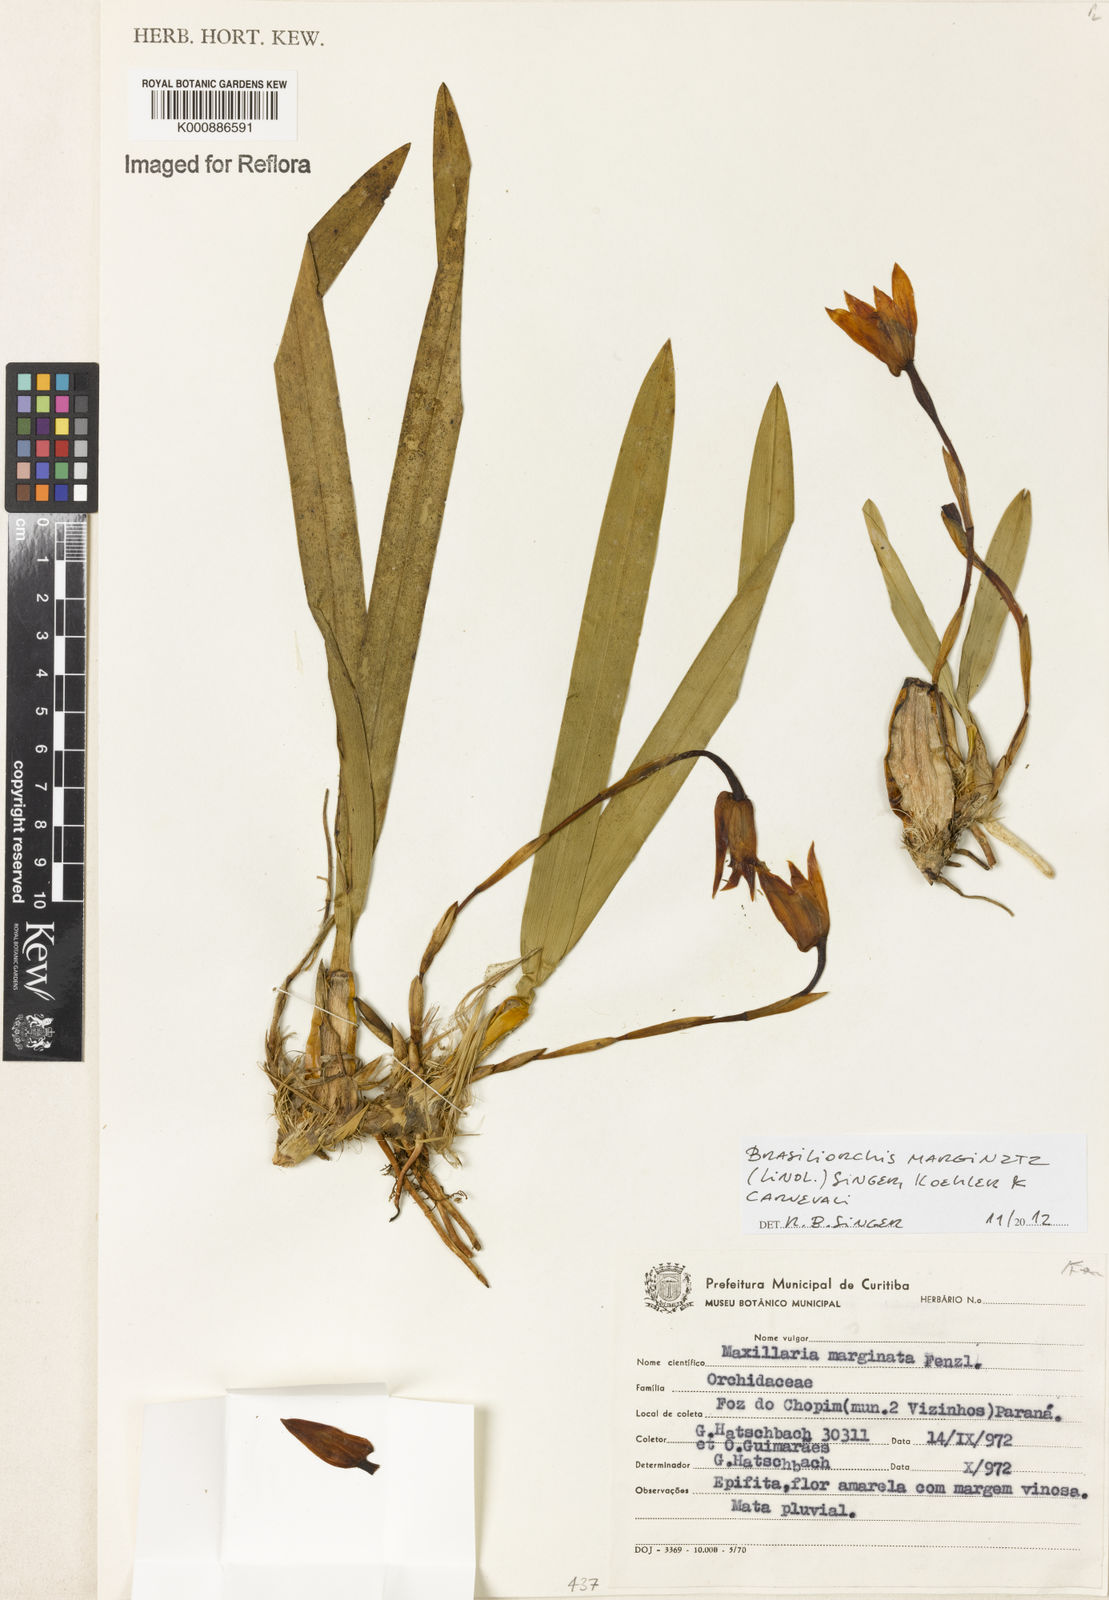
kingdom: Plantae
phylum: Tracheophyta
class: Liliopsida
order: Asparagales
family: Orchidaceae
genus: Maxillaria
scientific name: Maxillaria marginata
